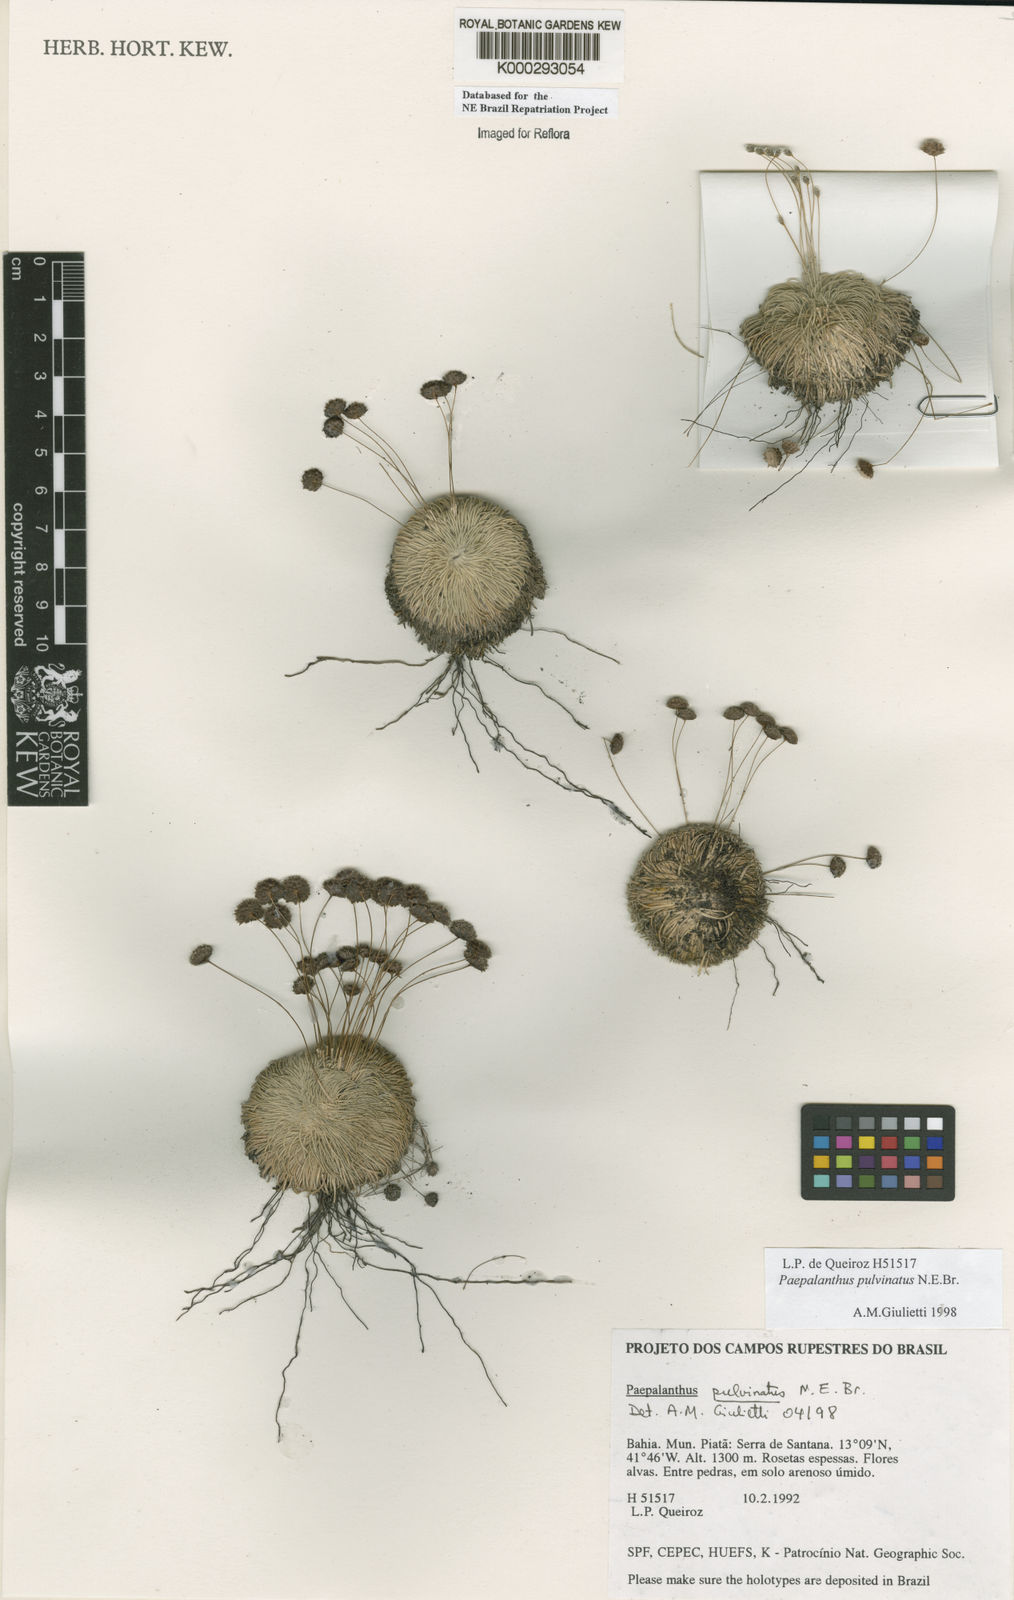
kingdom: Plantae
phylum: Tracheophyta
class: Liliopsida
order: Poales
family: Eriocaulaceae
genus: Paepalanthus
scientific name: Paepalanthus pulvinatus
